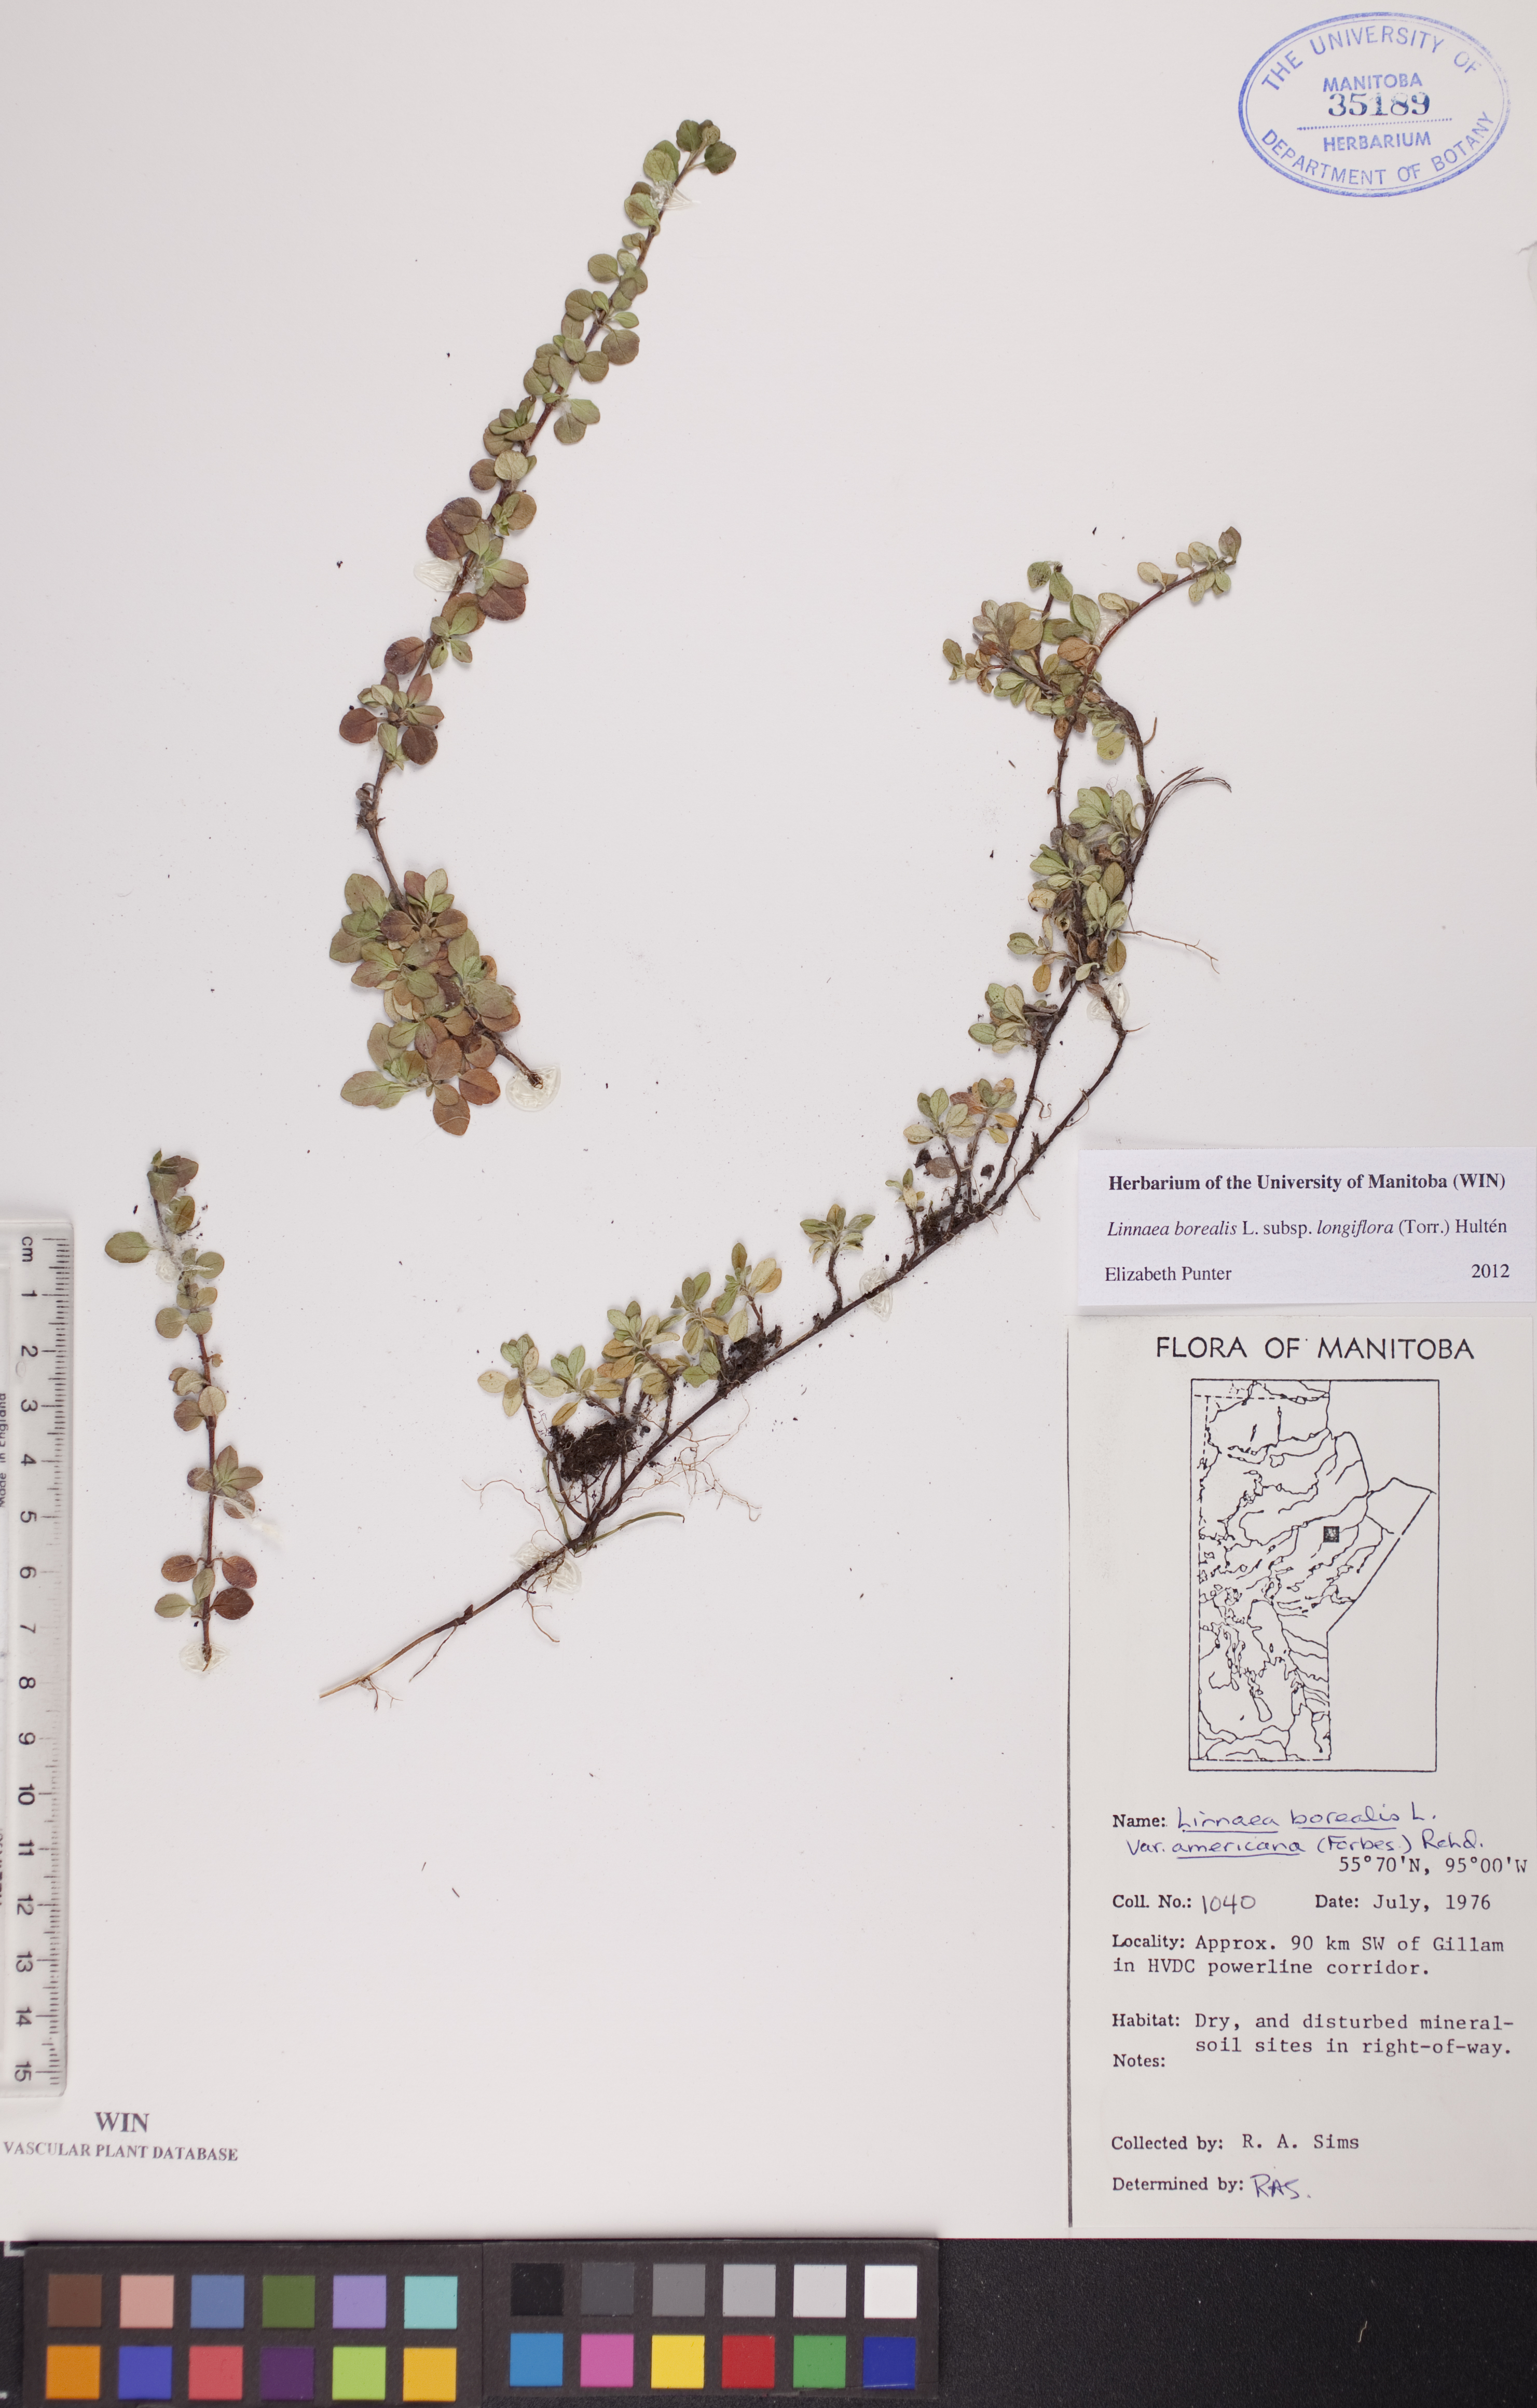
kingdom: Plantae
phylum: Tracheophyta
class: Magnoliopsida
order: Dipsacales
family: Caprifoliaceae
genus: Linnaea
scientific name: Linnaea borealis
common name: Twinflower
